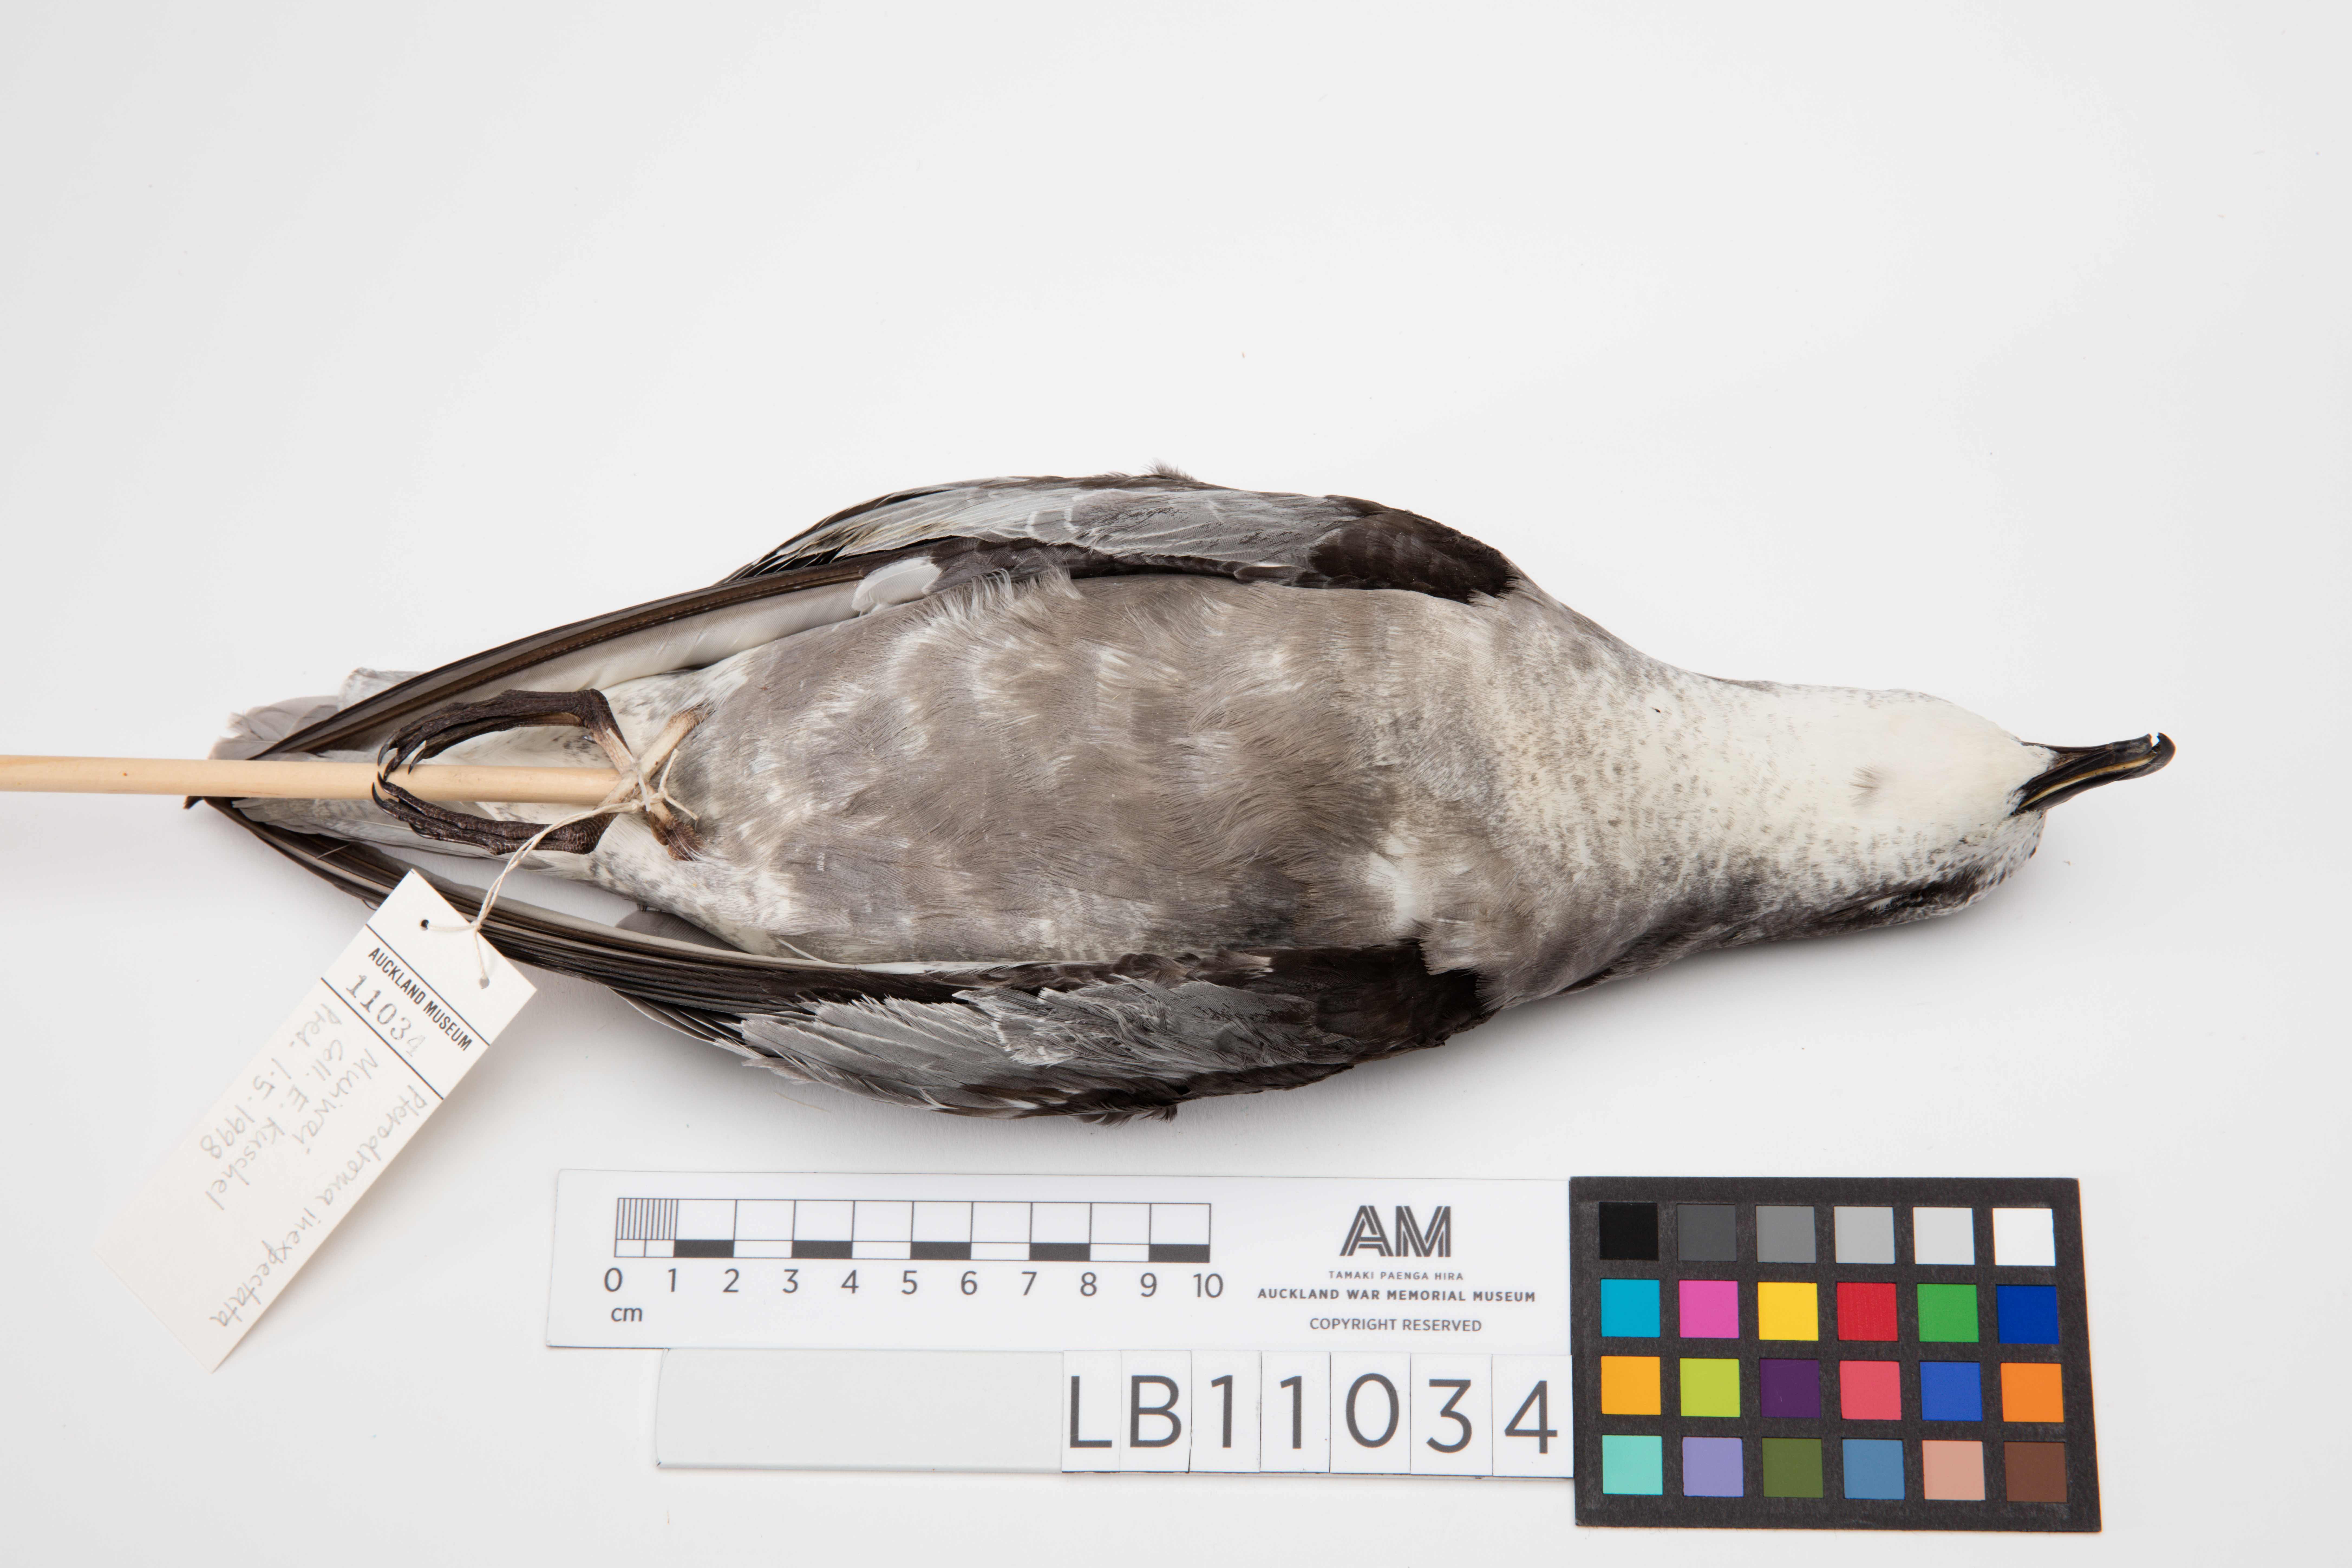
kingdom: Animalia
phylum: Chordata
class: Aves
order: Procellariiformes
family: Procellariidae
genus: Pterodroma
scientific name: Pterodroma inexpectata
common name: Mottled petrel
